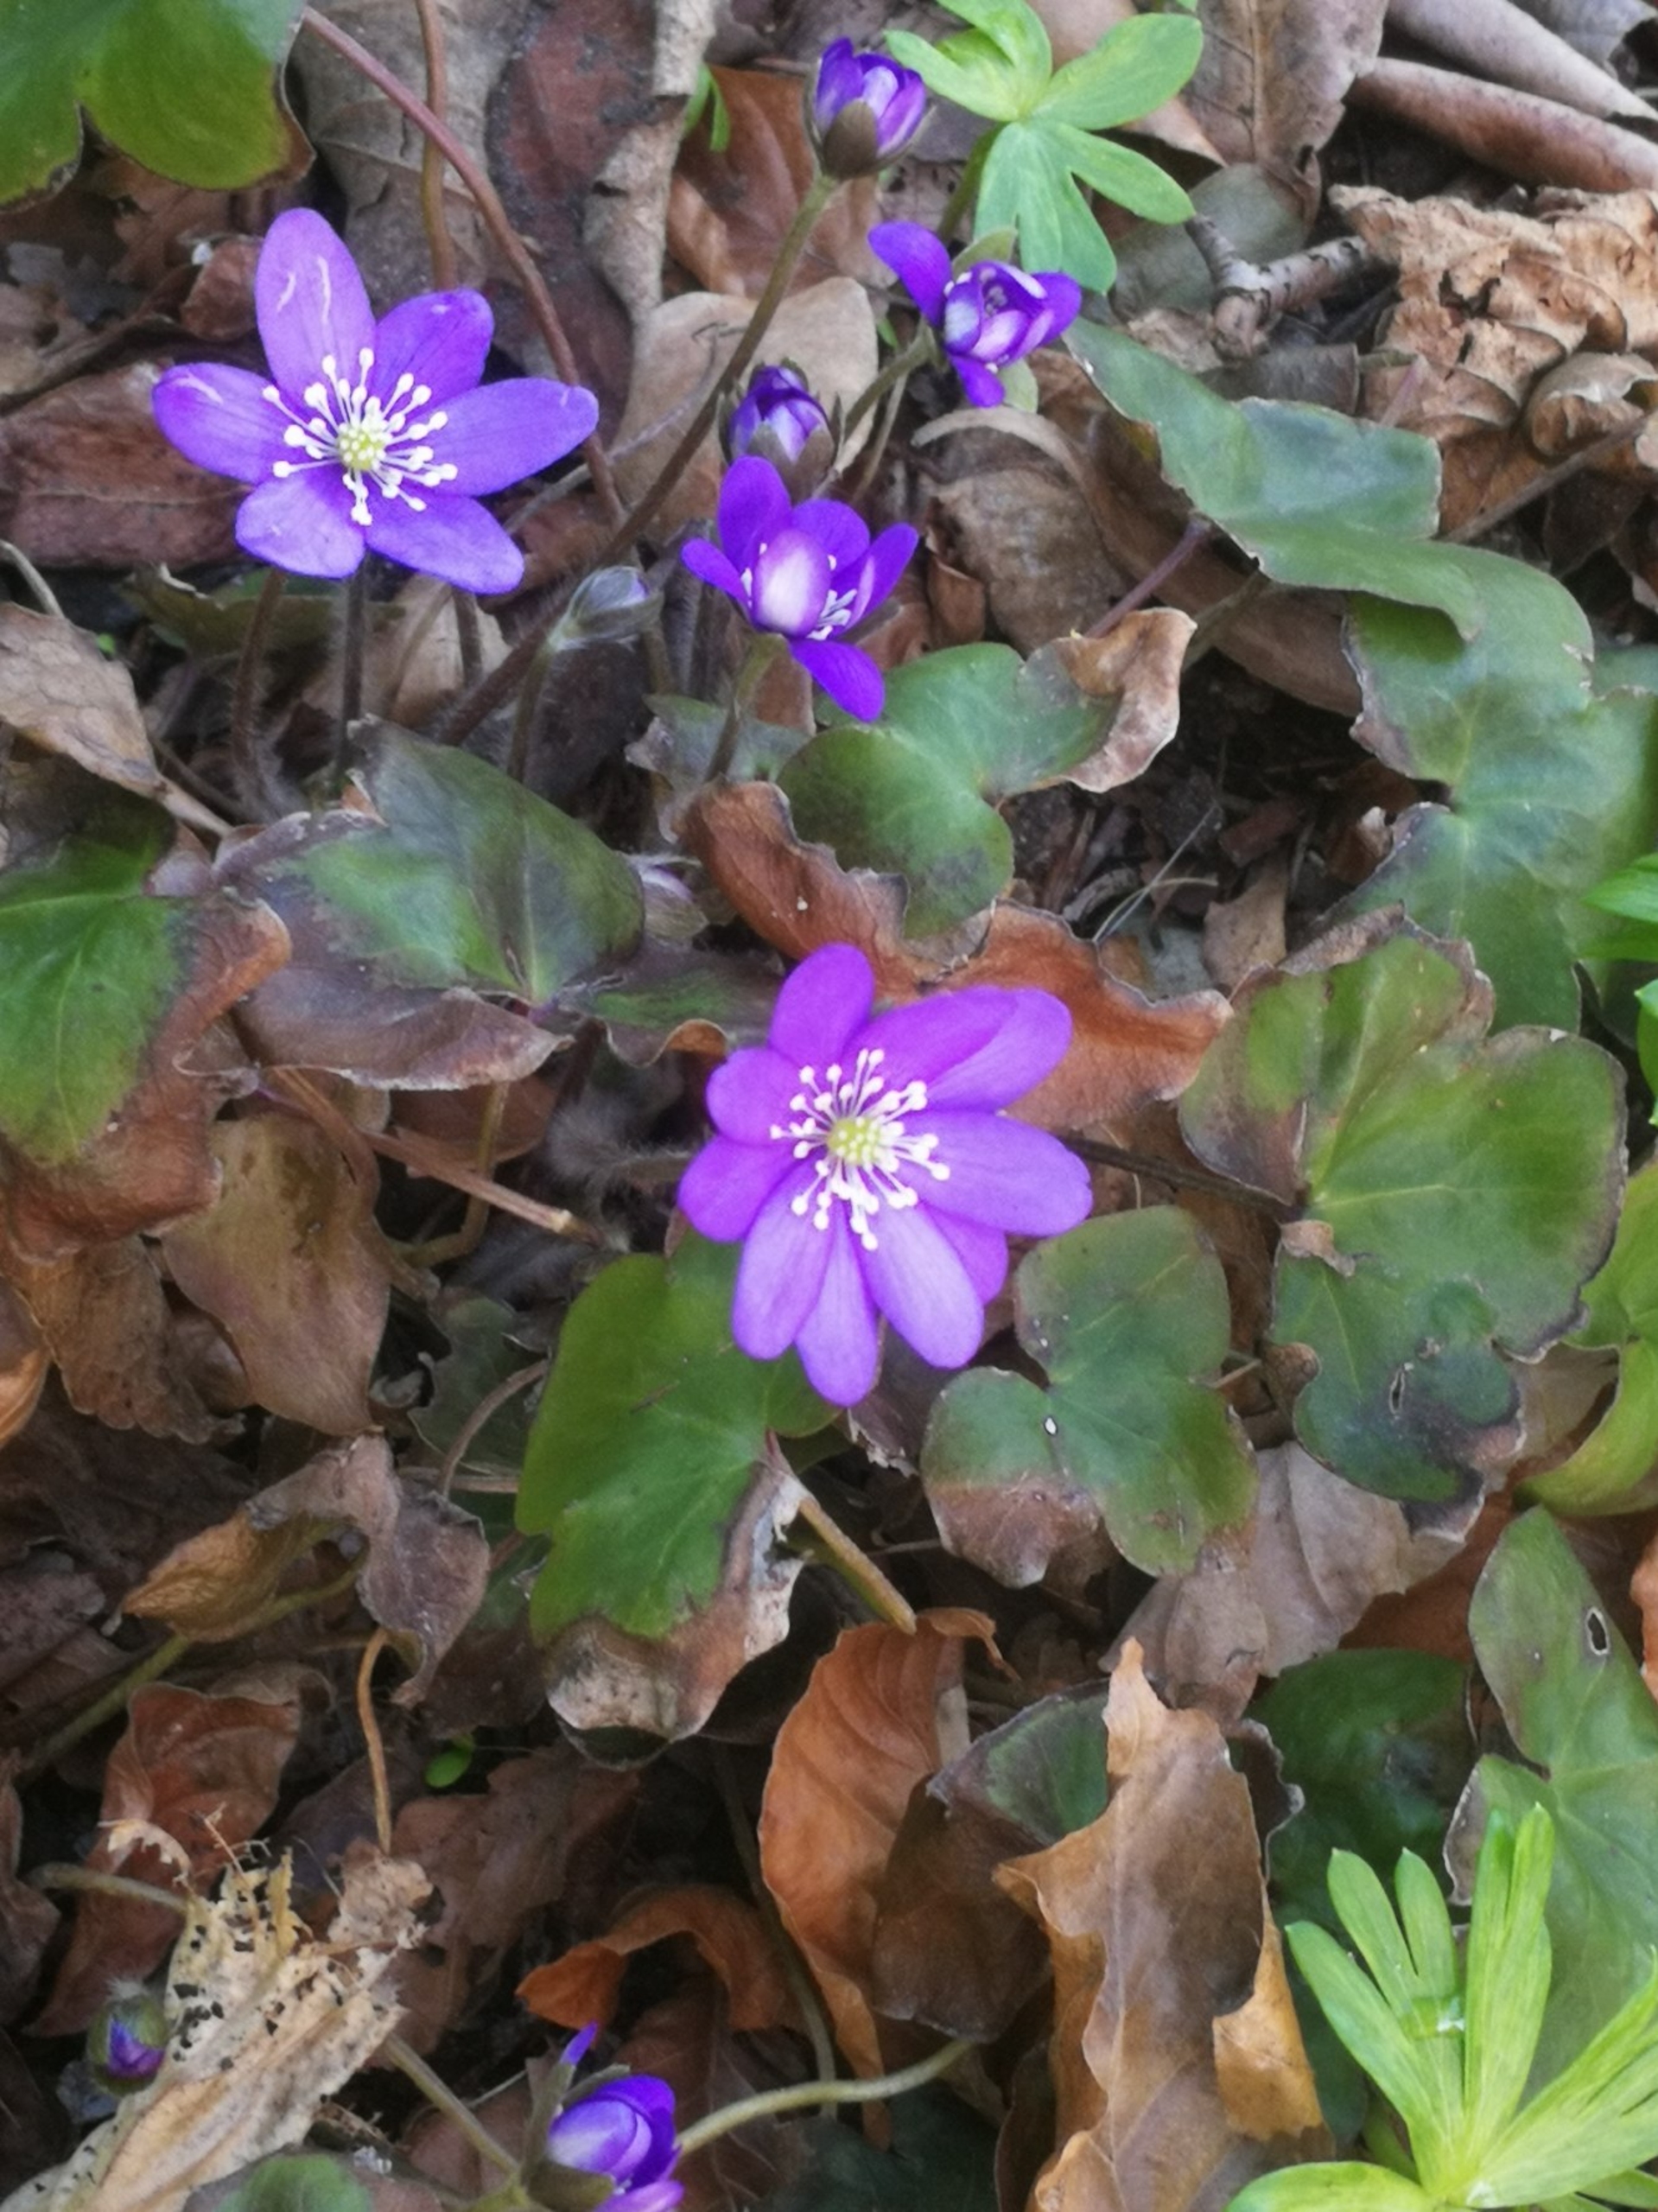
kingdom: Animalia
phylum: Chordata
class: Aves
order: Galliformes
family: Phasianidae
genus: Phasianus
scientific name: Phasianus colchicus
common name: Fasan
